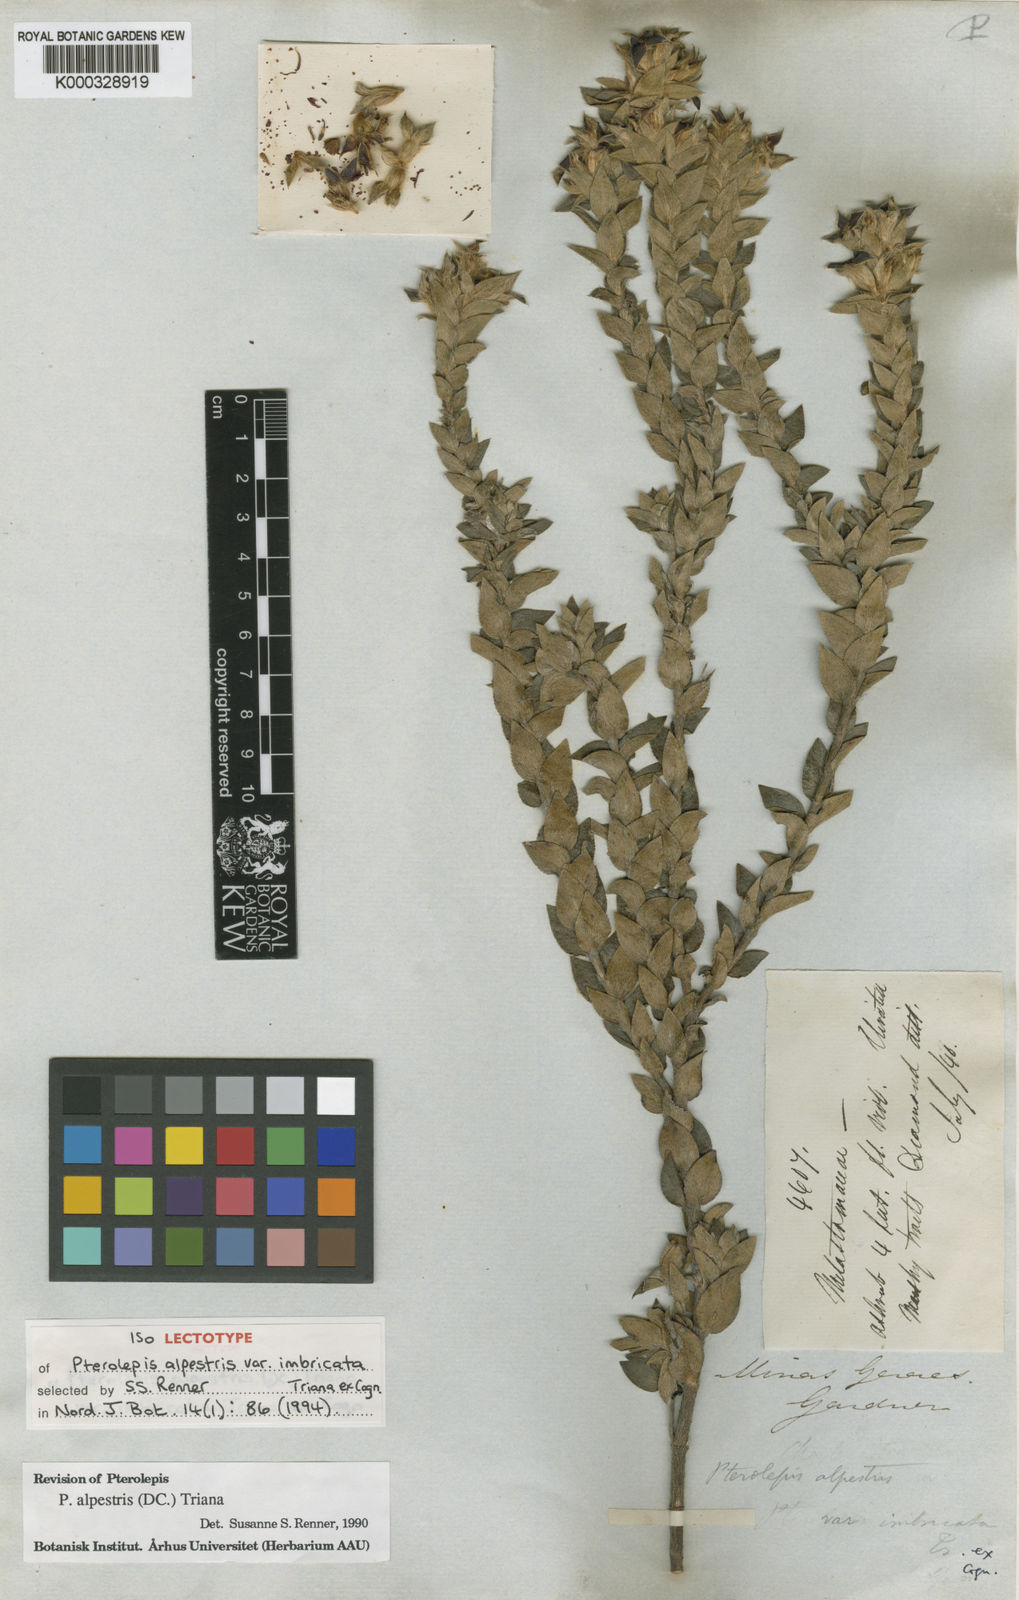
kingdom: Plantae
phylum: Tracheophyta
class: Magnoliopsida
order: Myrtales
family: Melastomataceae
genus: Pterolepis
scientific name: Pterolepis alpestris
